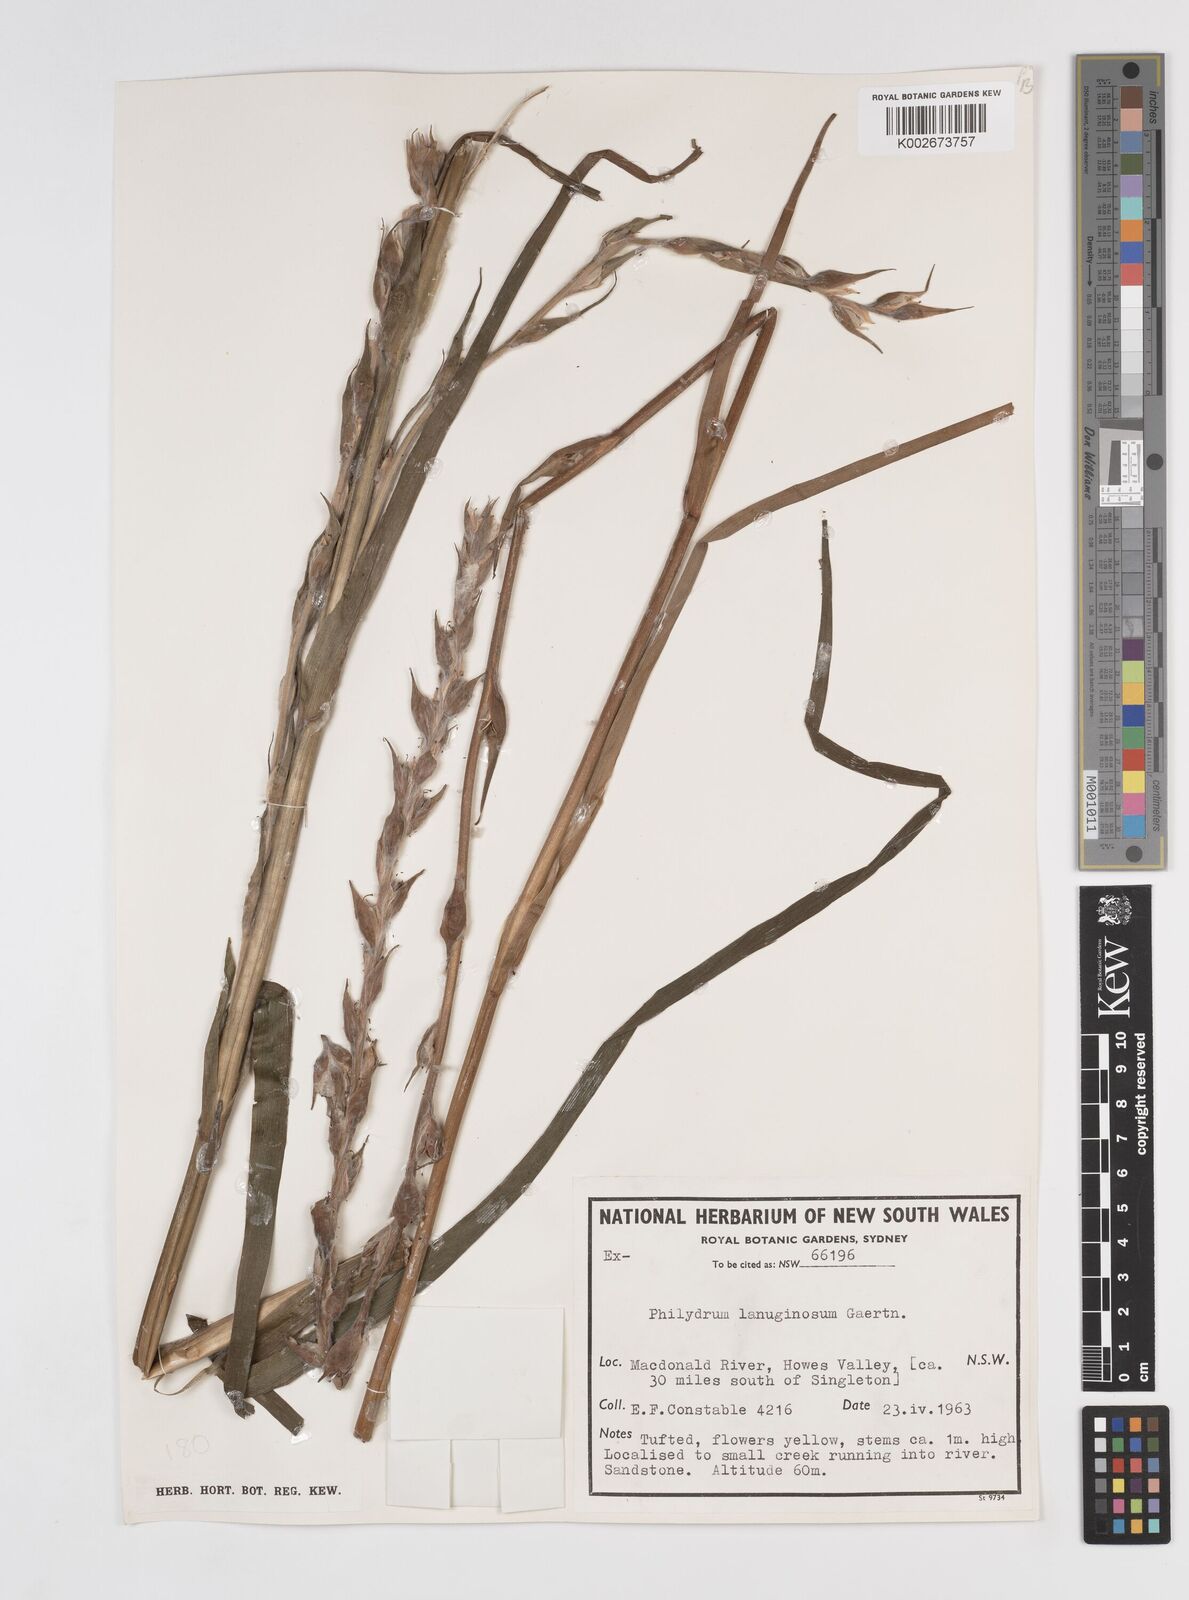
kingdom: Plantae
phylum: Tracheophyta
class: Liliopsida
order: Commelinales
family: Philydraceae
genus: Philydrum
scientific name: Philydrum lanuginosum
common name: Woolly frog's mouth
